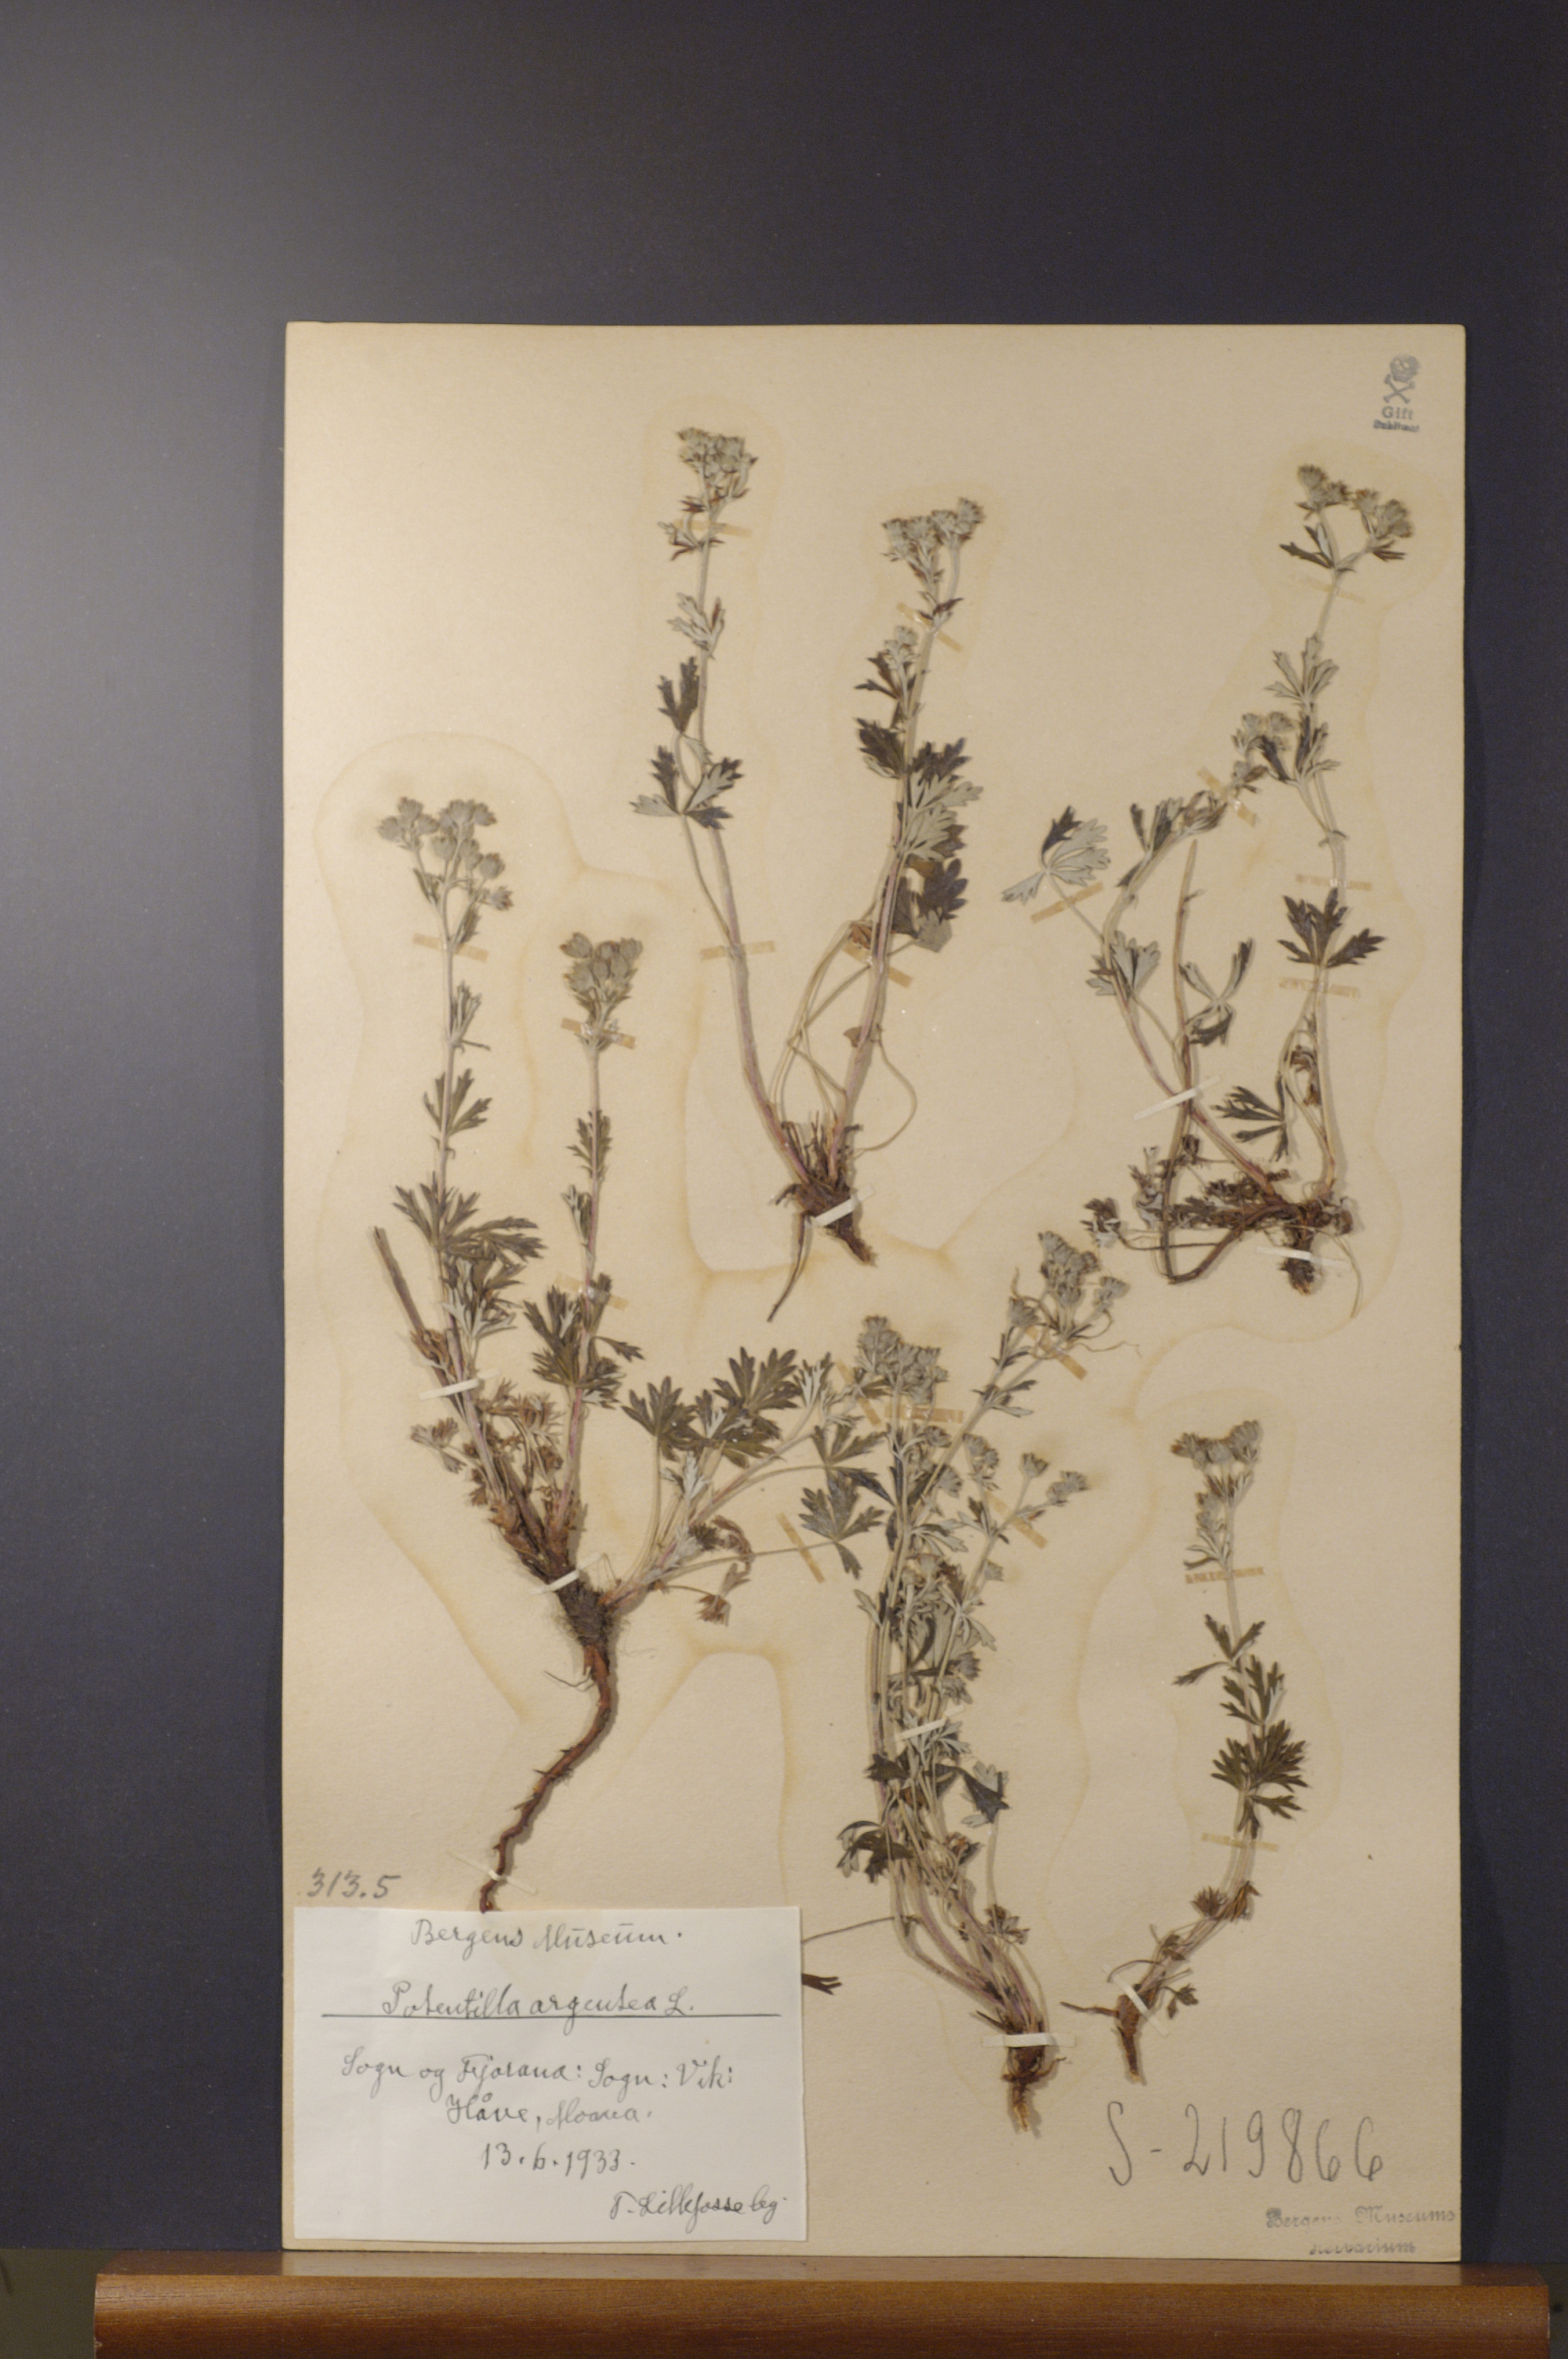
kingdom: Plantae
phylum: Tracheophyta
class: Magnoliopsida
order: Rosales
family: Rosaceae
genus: Potentilla
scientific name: Potentilla argentea
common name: Hoary cinquefoil
